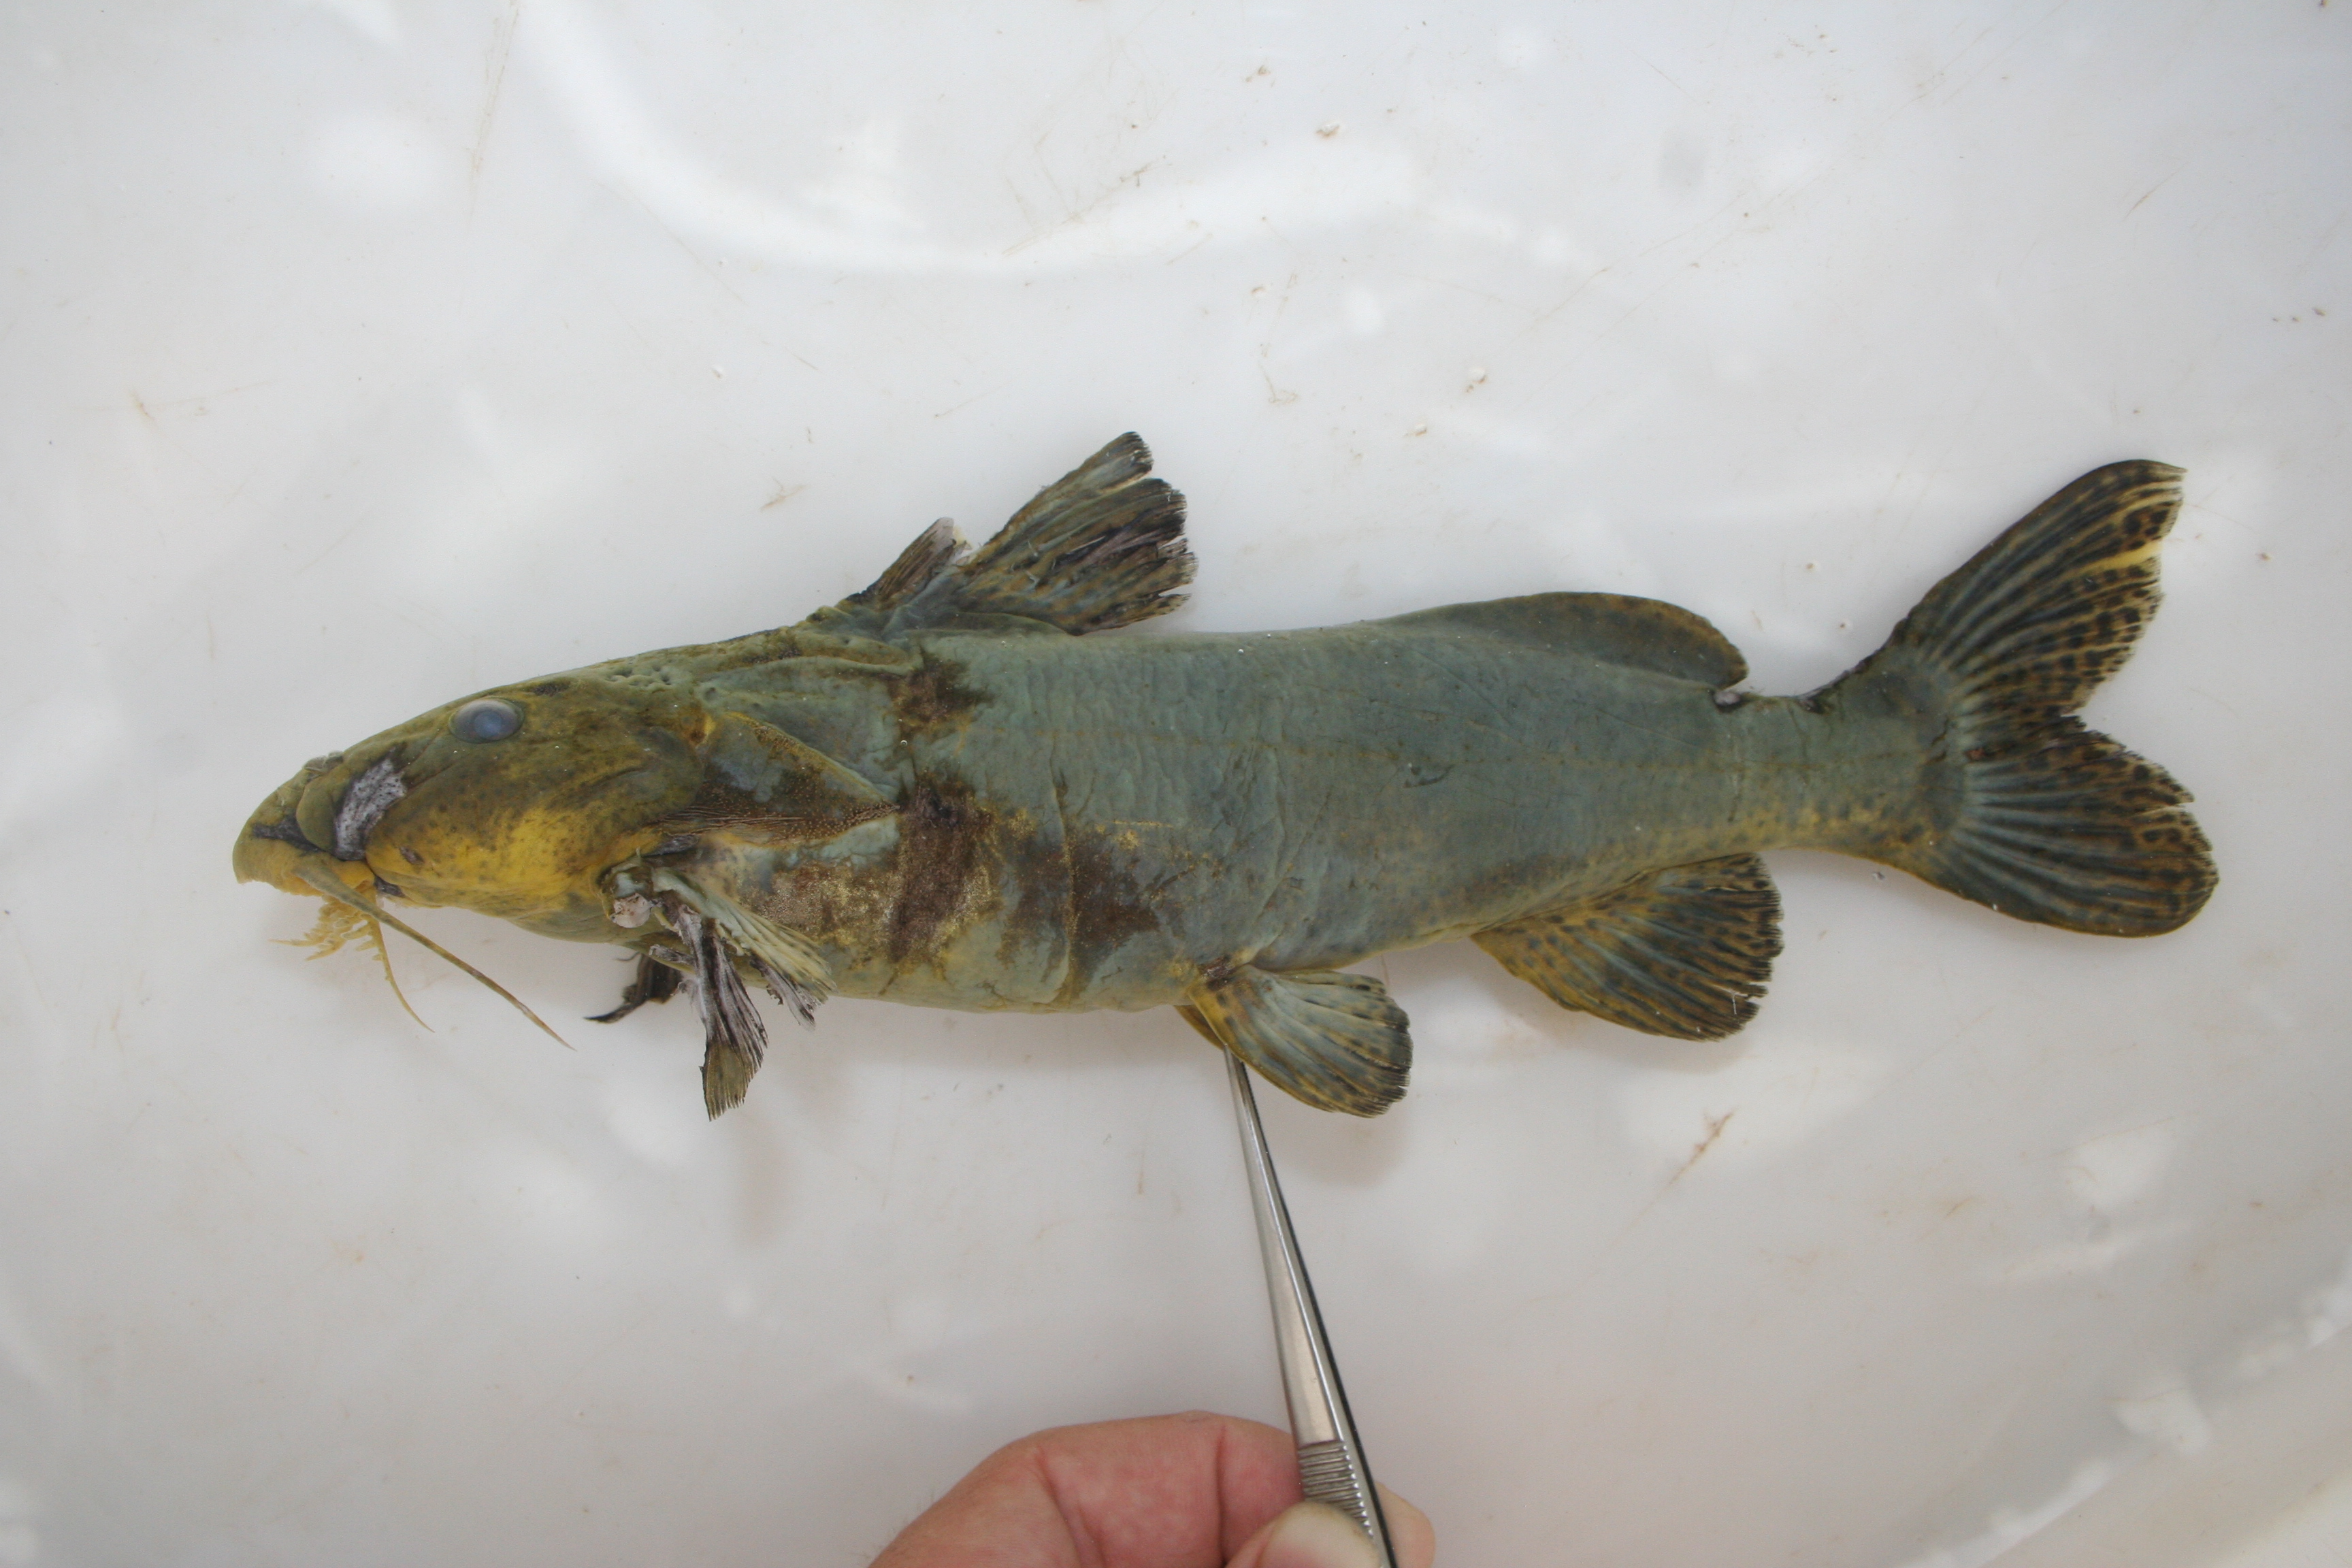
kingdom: Animalia
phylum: Chordata
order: Siluriformes
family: Mochokidae
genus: Synodontis
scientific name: Synodontis
